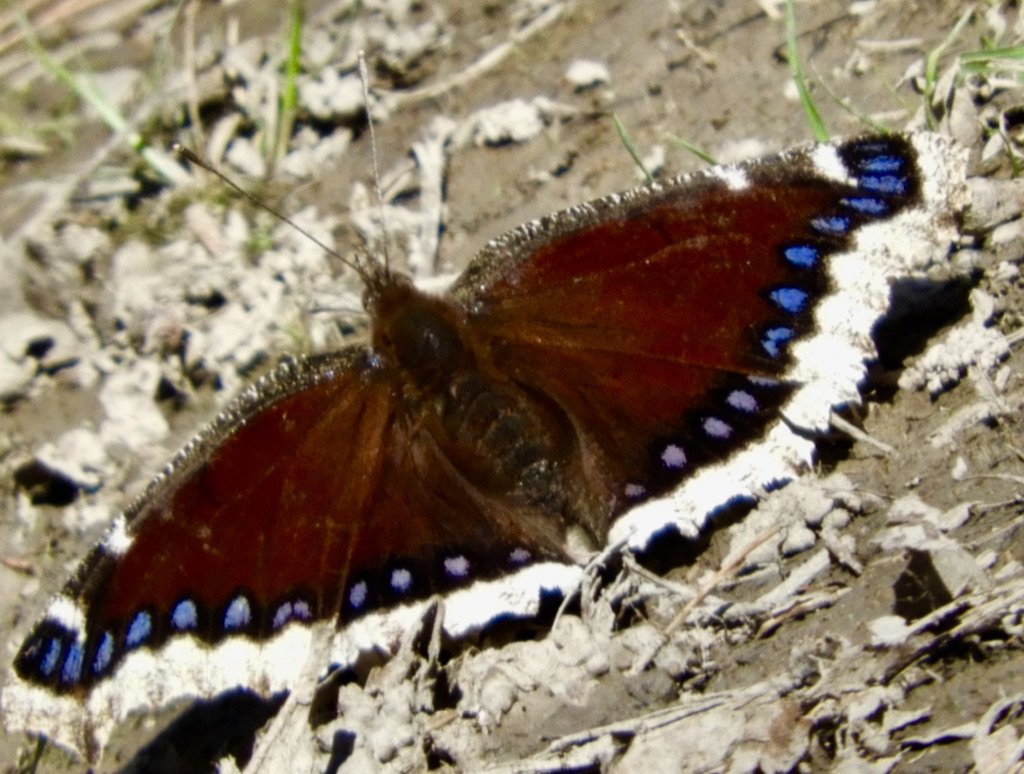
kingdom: Animalia
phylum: Arthropoda
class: Insecta
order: Lepidoptera
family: Nymphalidae
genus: Nymphalis
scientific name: Nymphalis antiopa
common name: Mourning Cloak
